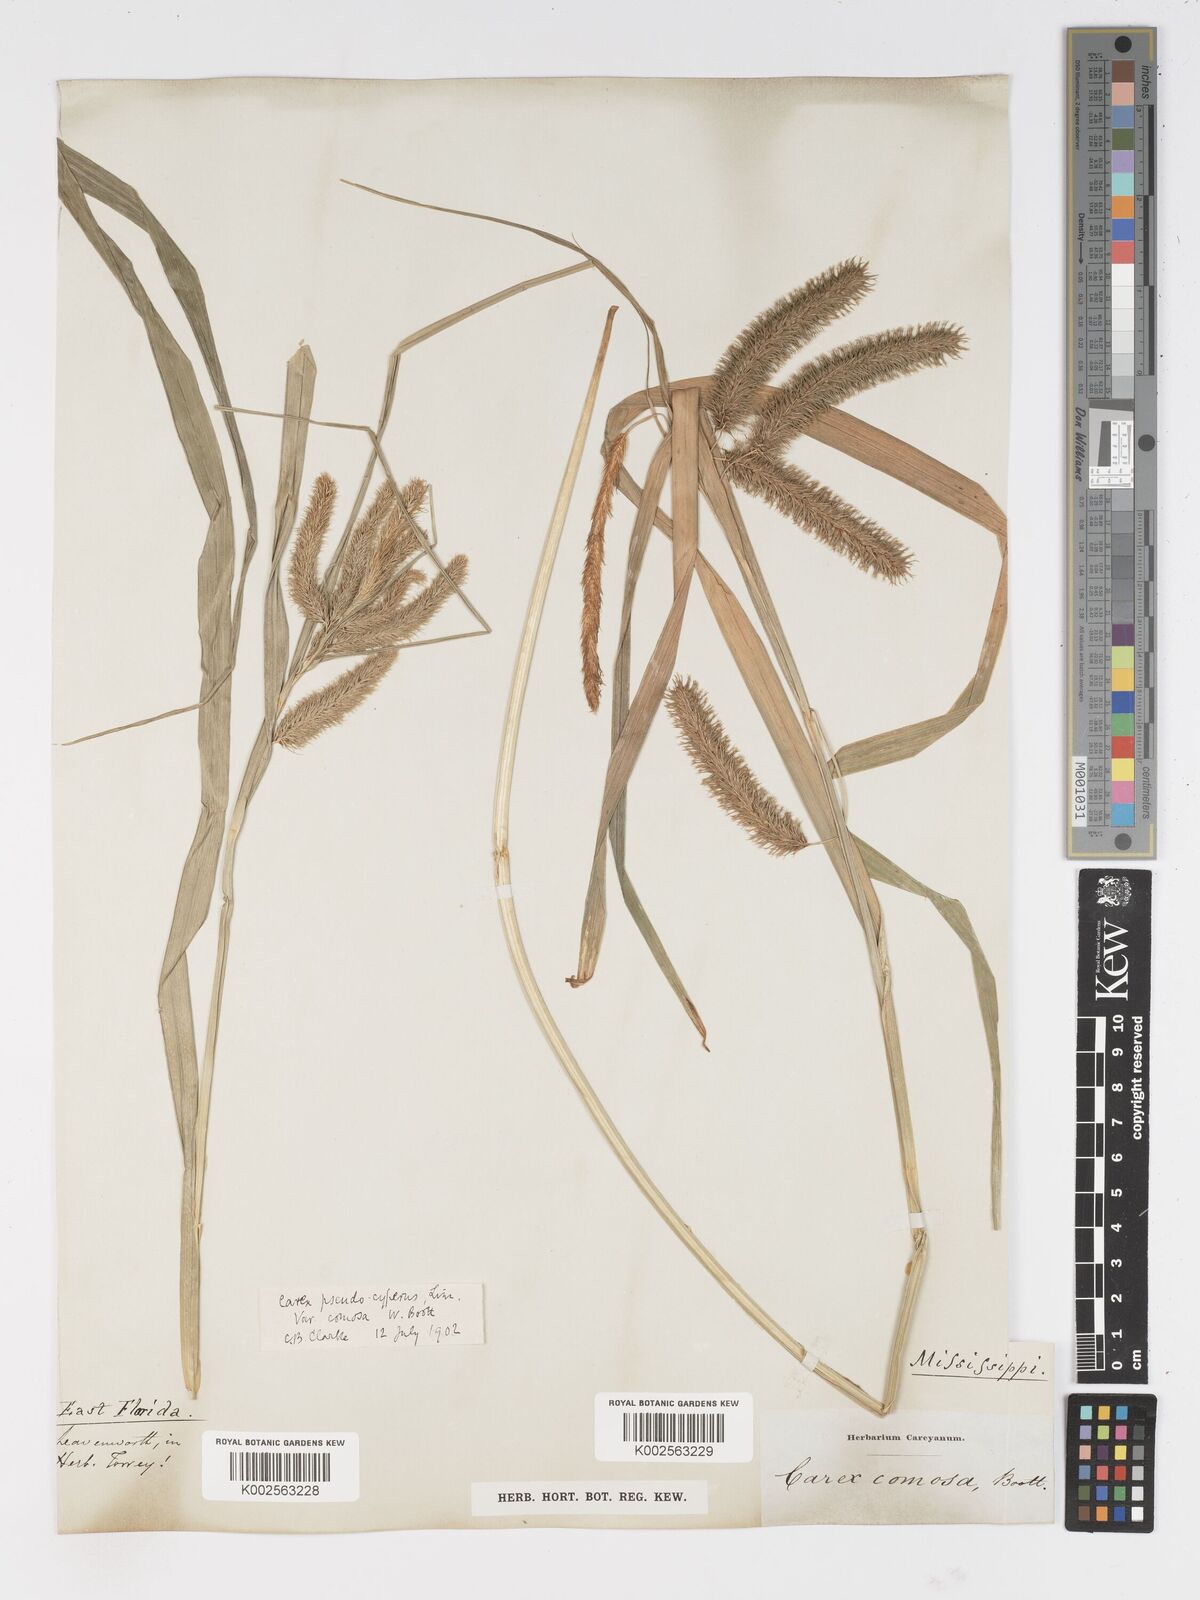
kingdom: Plantae
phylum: Tracheophyta
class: Liliopsida
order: Poales
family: Cyperaceae
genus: Carex
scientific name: Carex comosa
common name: Bristly sedge
